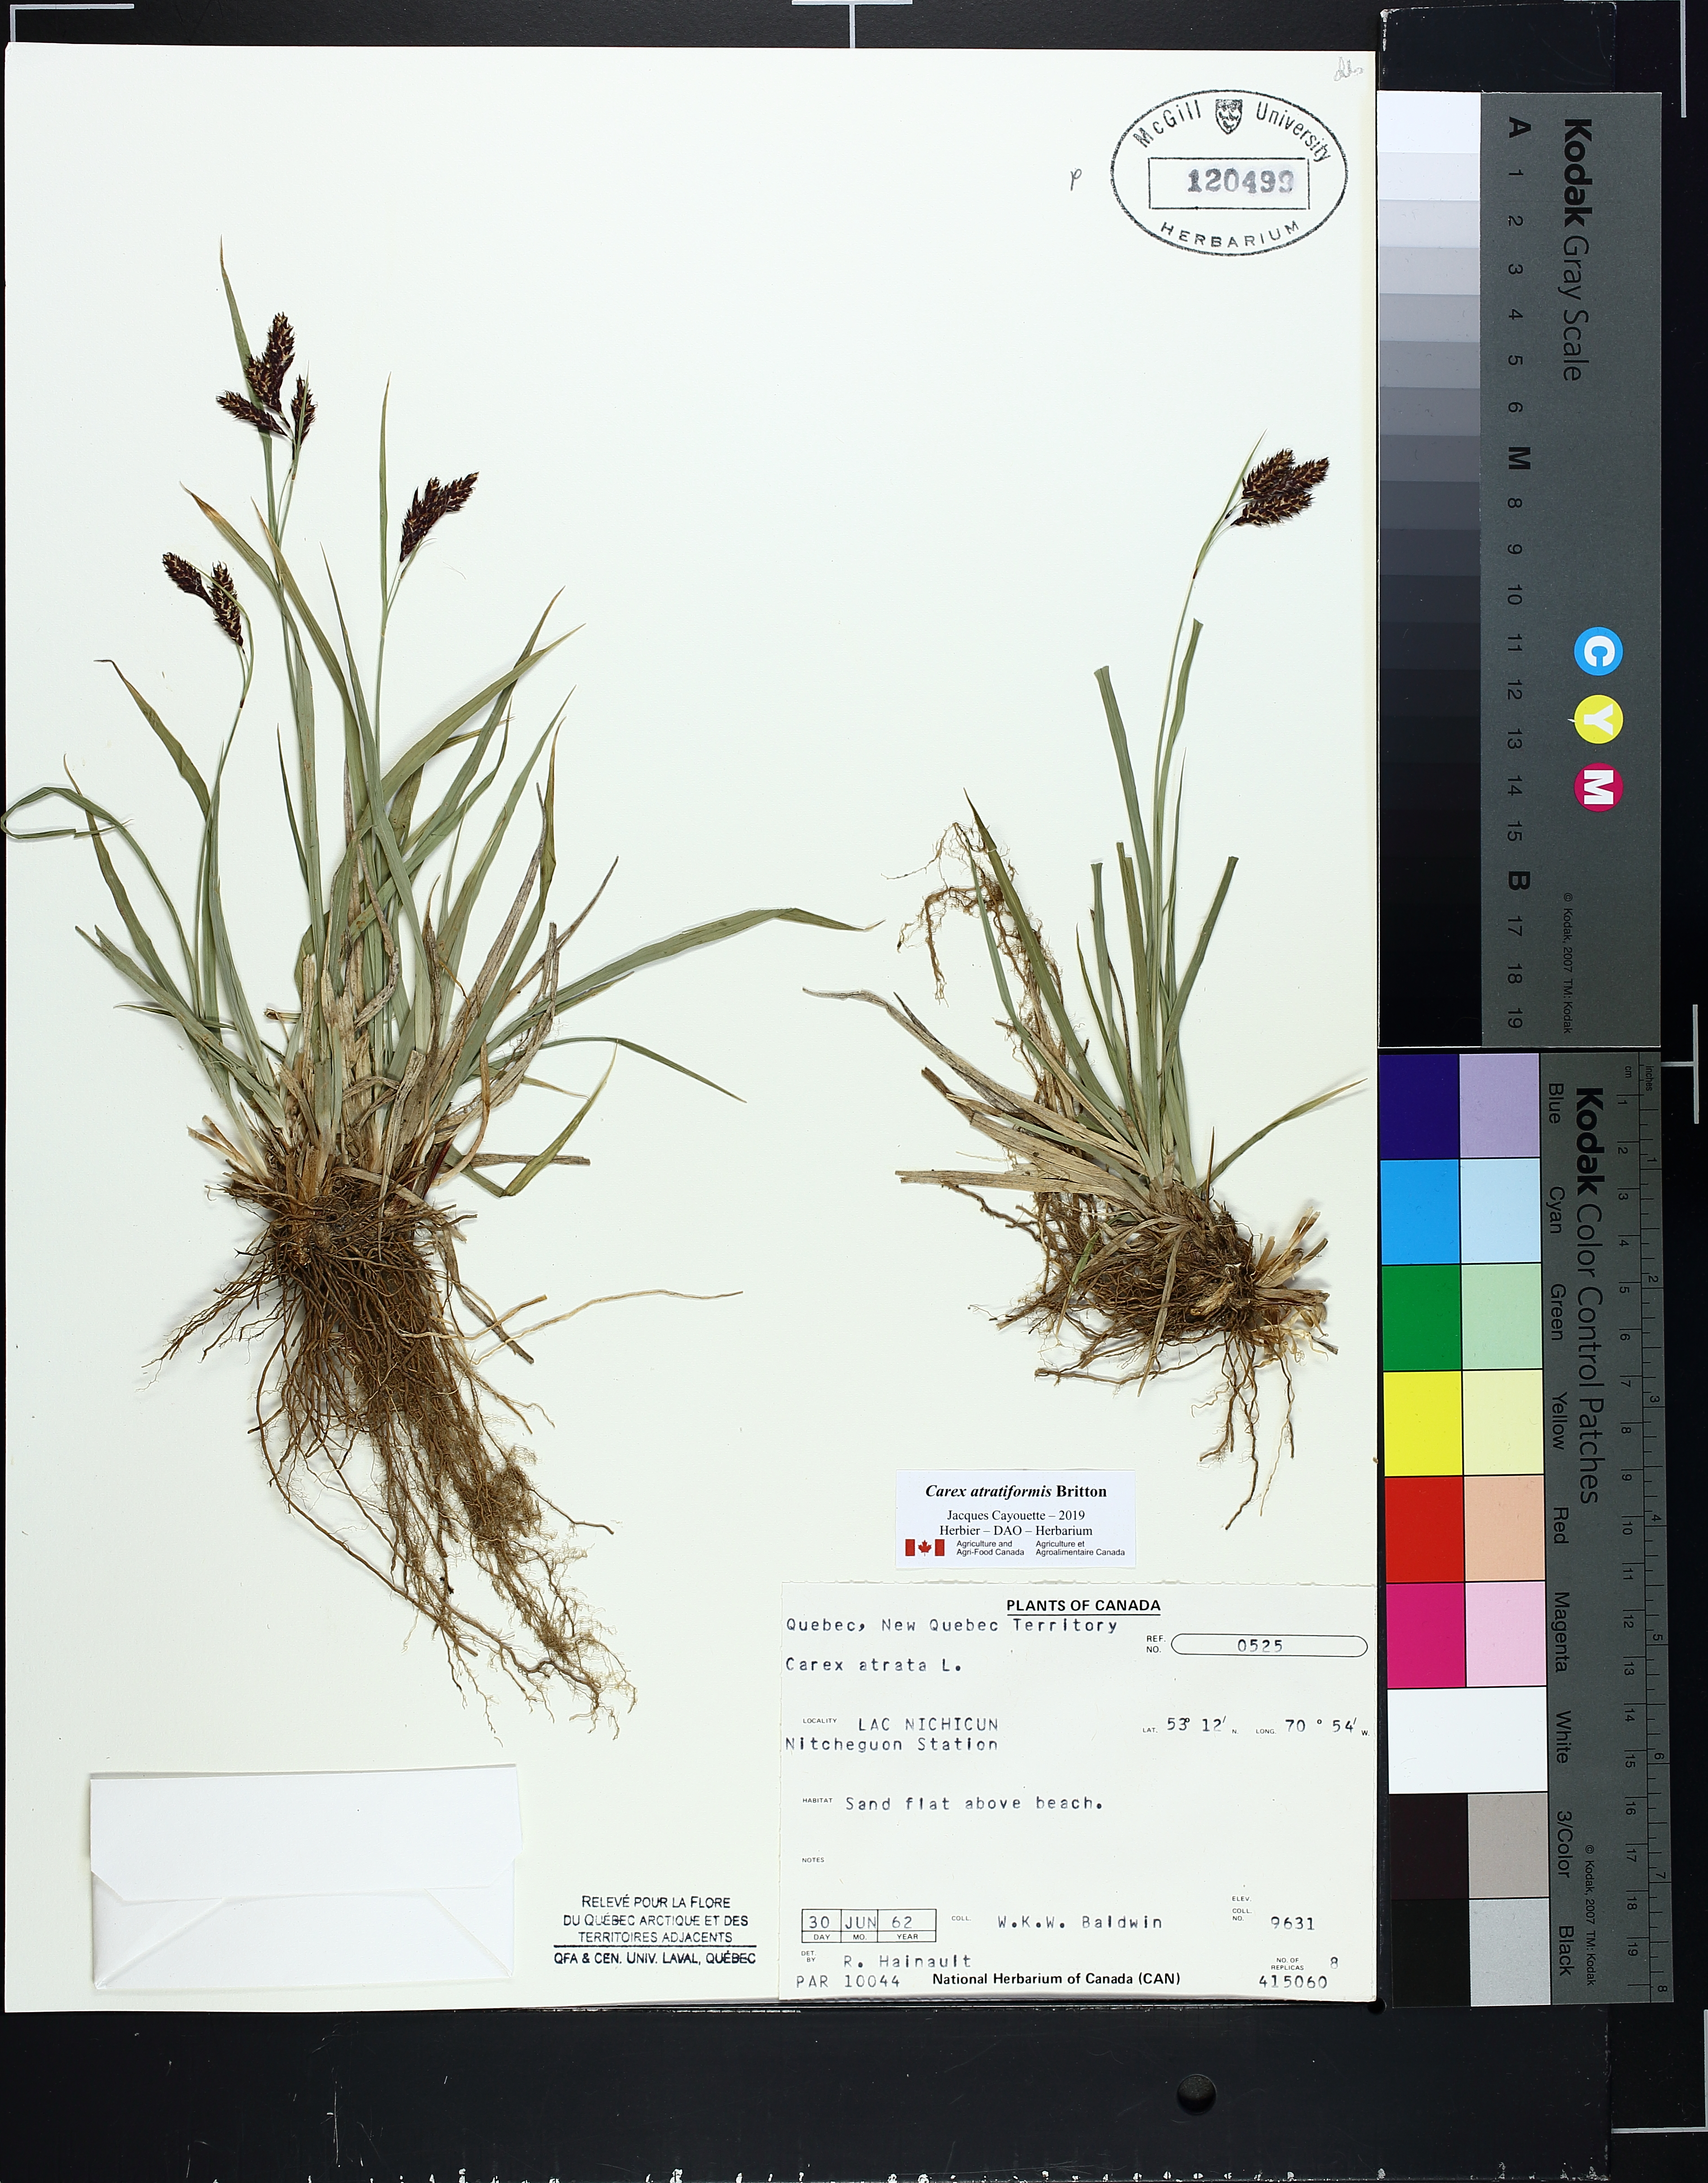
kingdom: Plantae
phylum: Tracheophyta
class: Liliopsida
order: Poales
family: Cyperaceae
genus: Carex
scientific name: Carex atratiformis
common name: Black sedge
